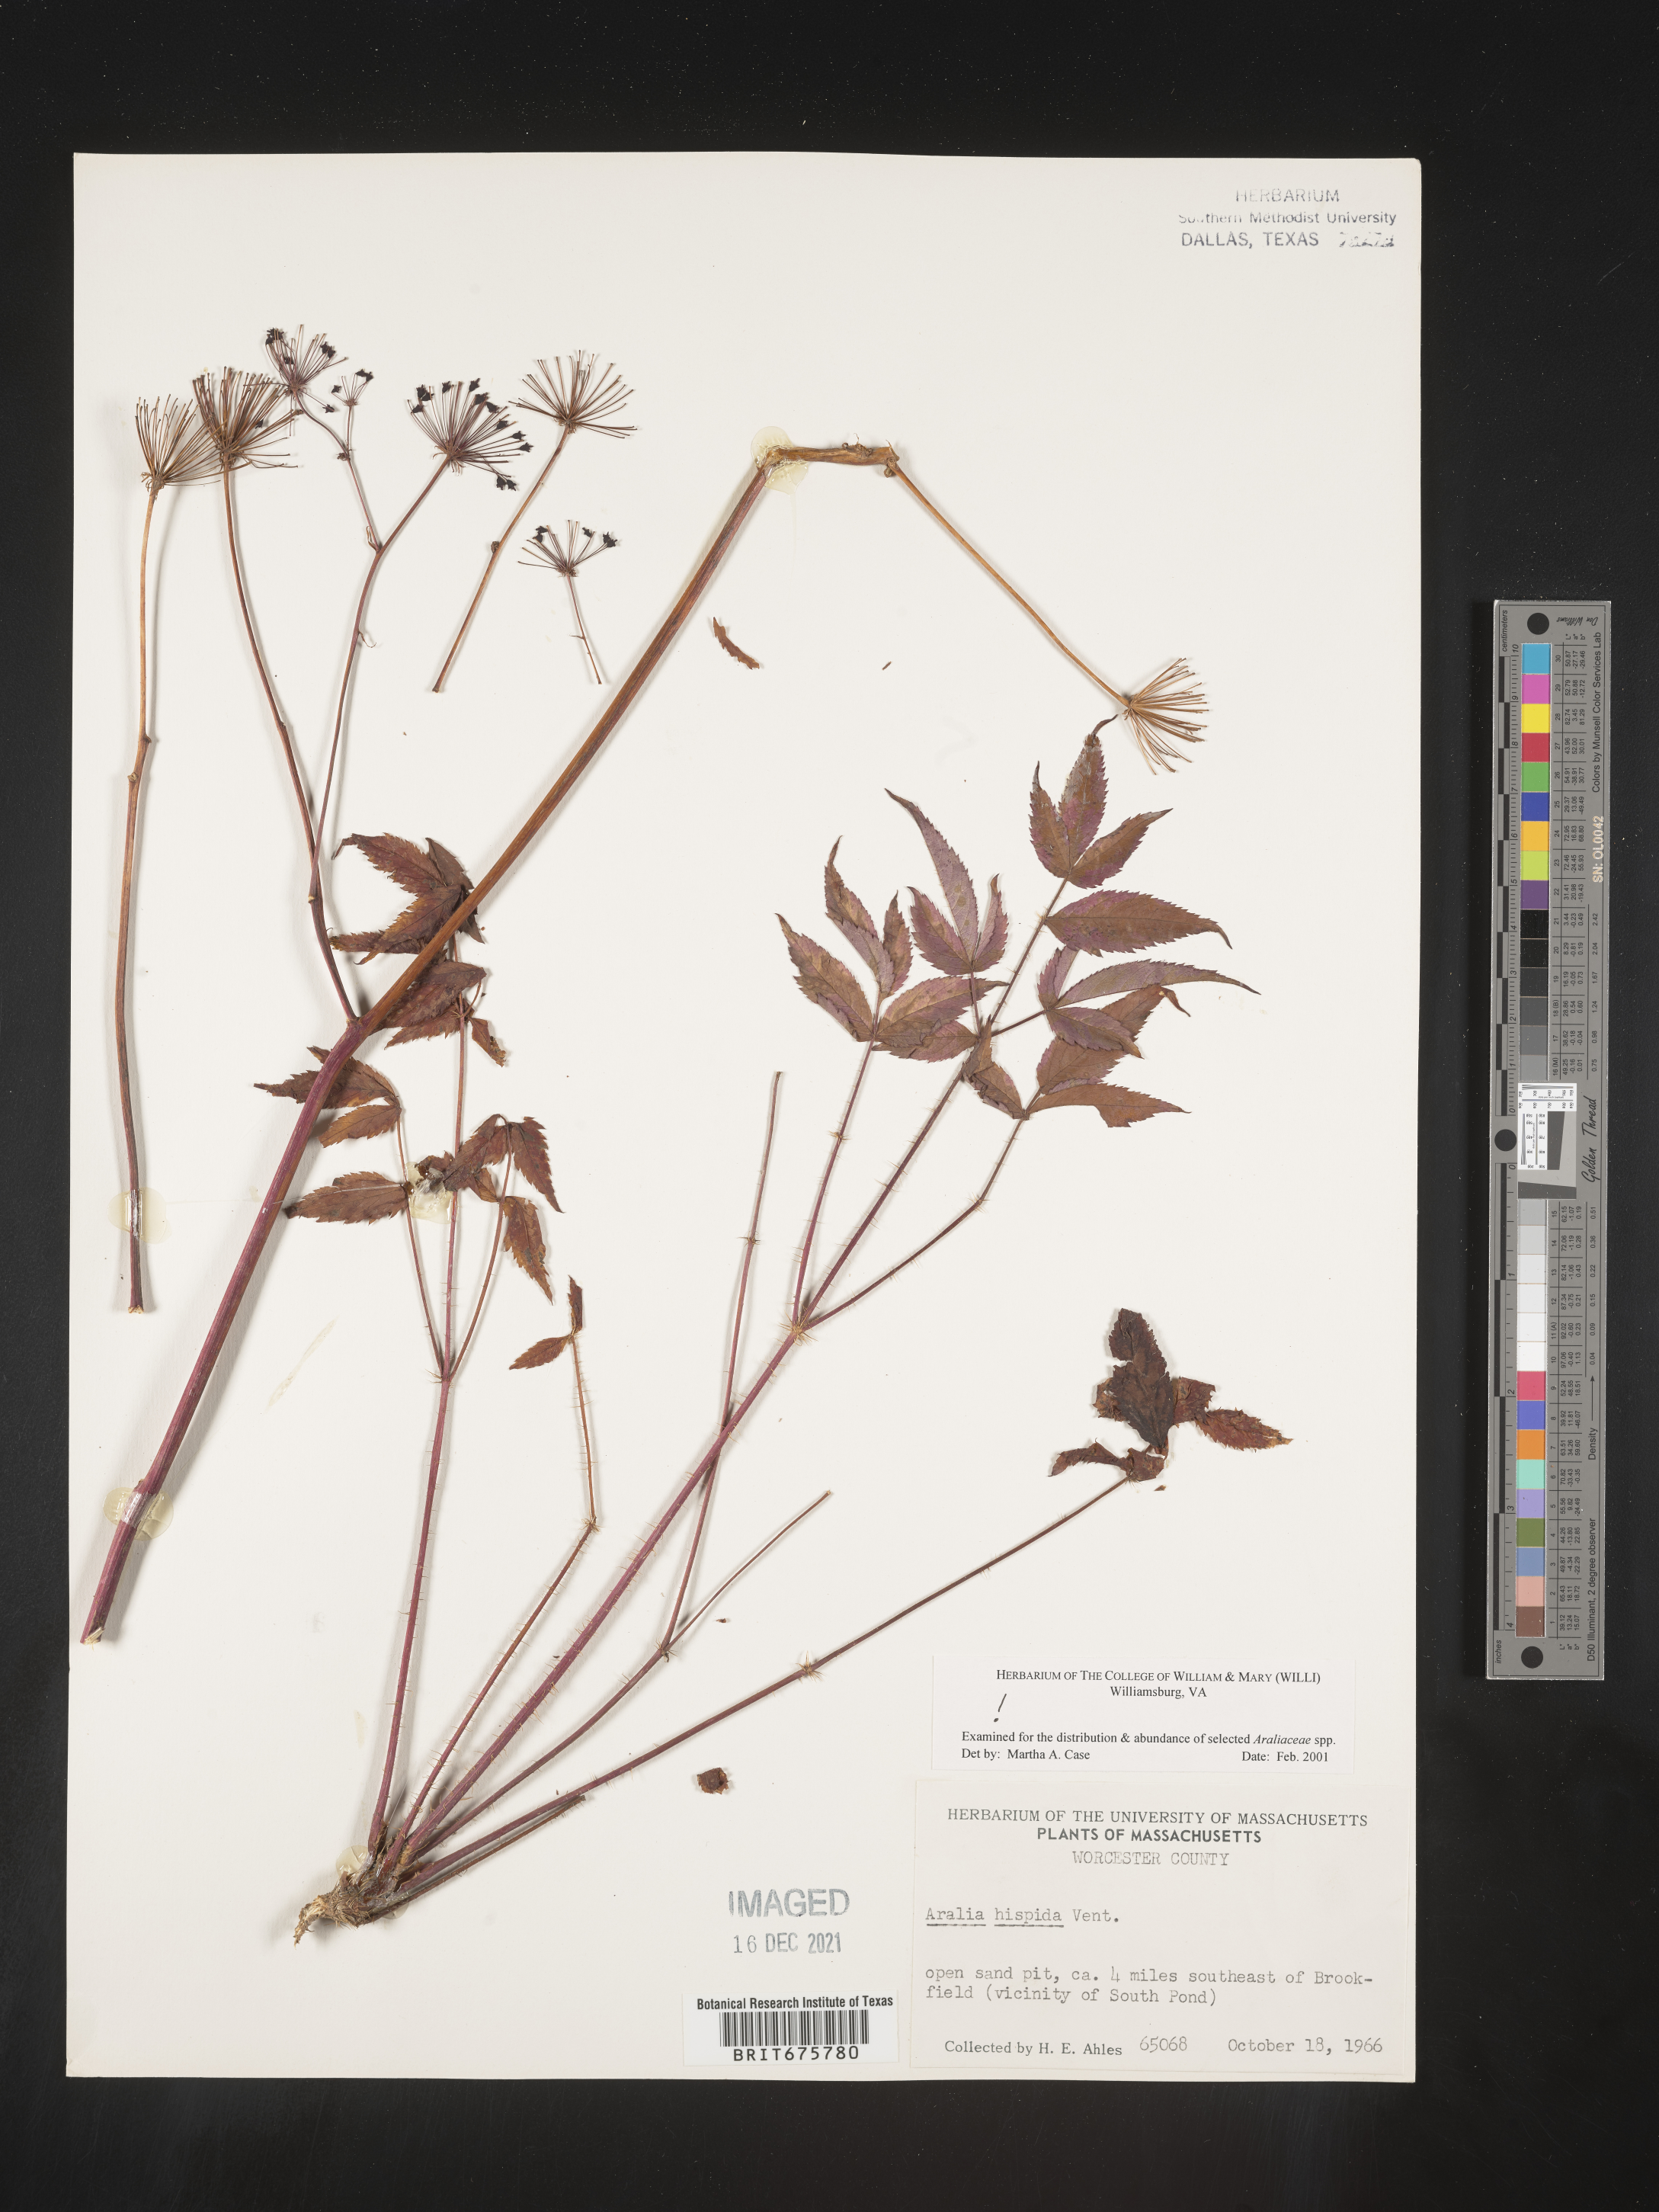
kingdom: Plantae
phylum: Tracheophyta
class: Magnoliopsida
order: Apiales
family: Araliaceae
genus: Aralia
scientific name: Aralia hispida
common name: Bristly sarsaparilla
